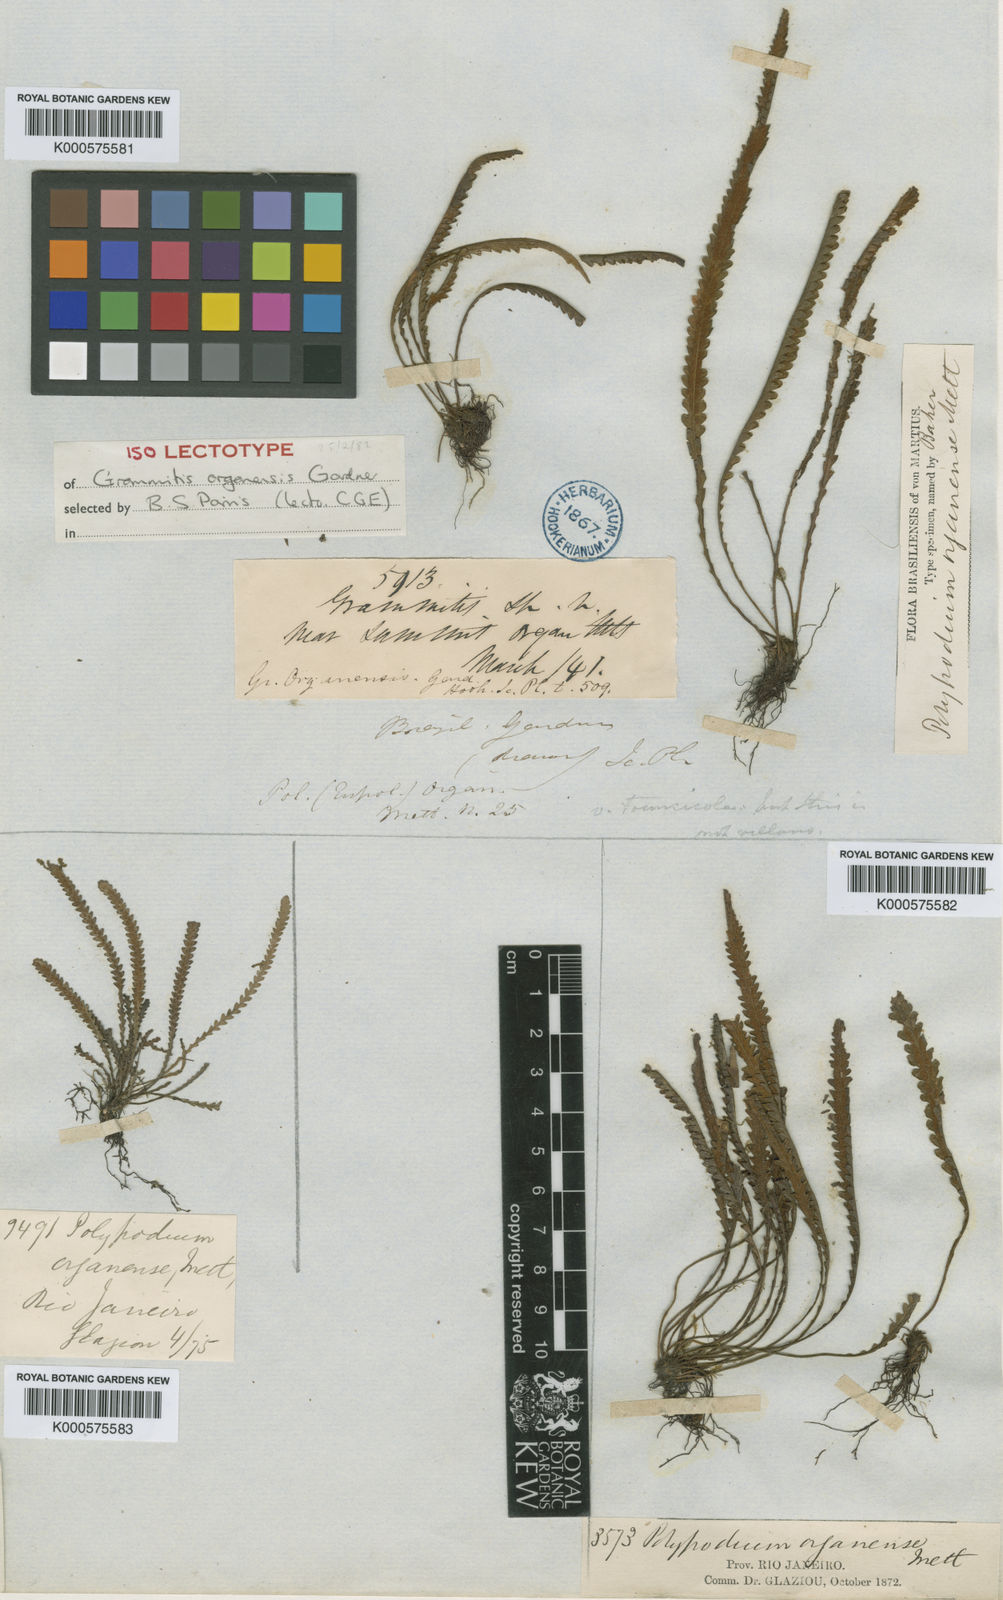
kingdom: Plantae
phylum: Tracheophyta
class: Polypodiopsida
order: Polypodiales
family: Polypodiaceae
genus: Leucotrichum
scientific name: Leucotrichum organense
